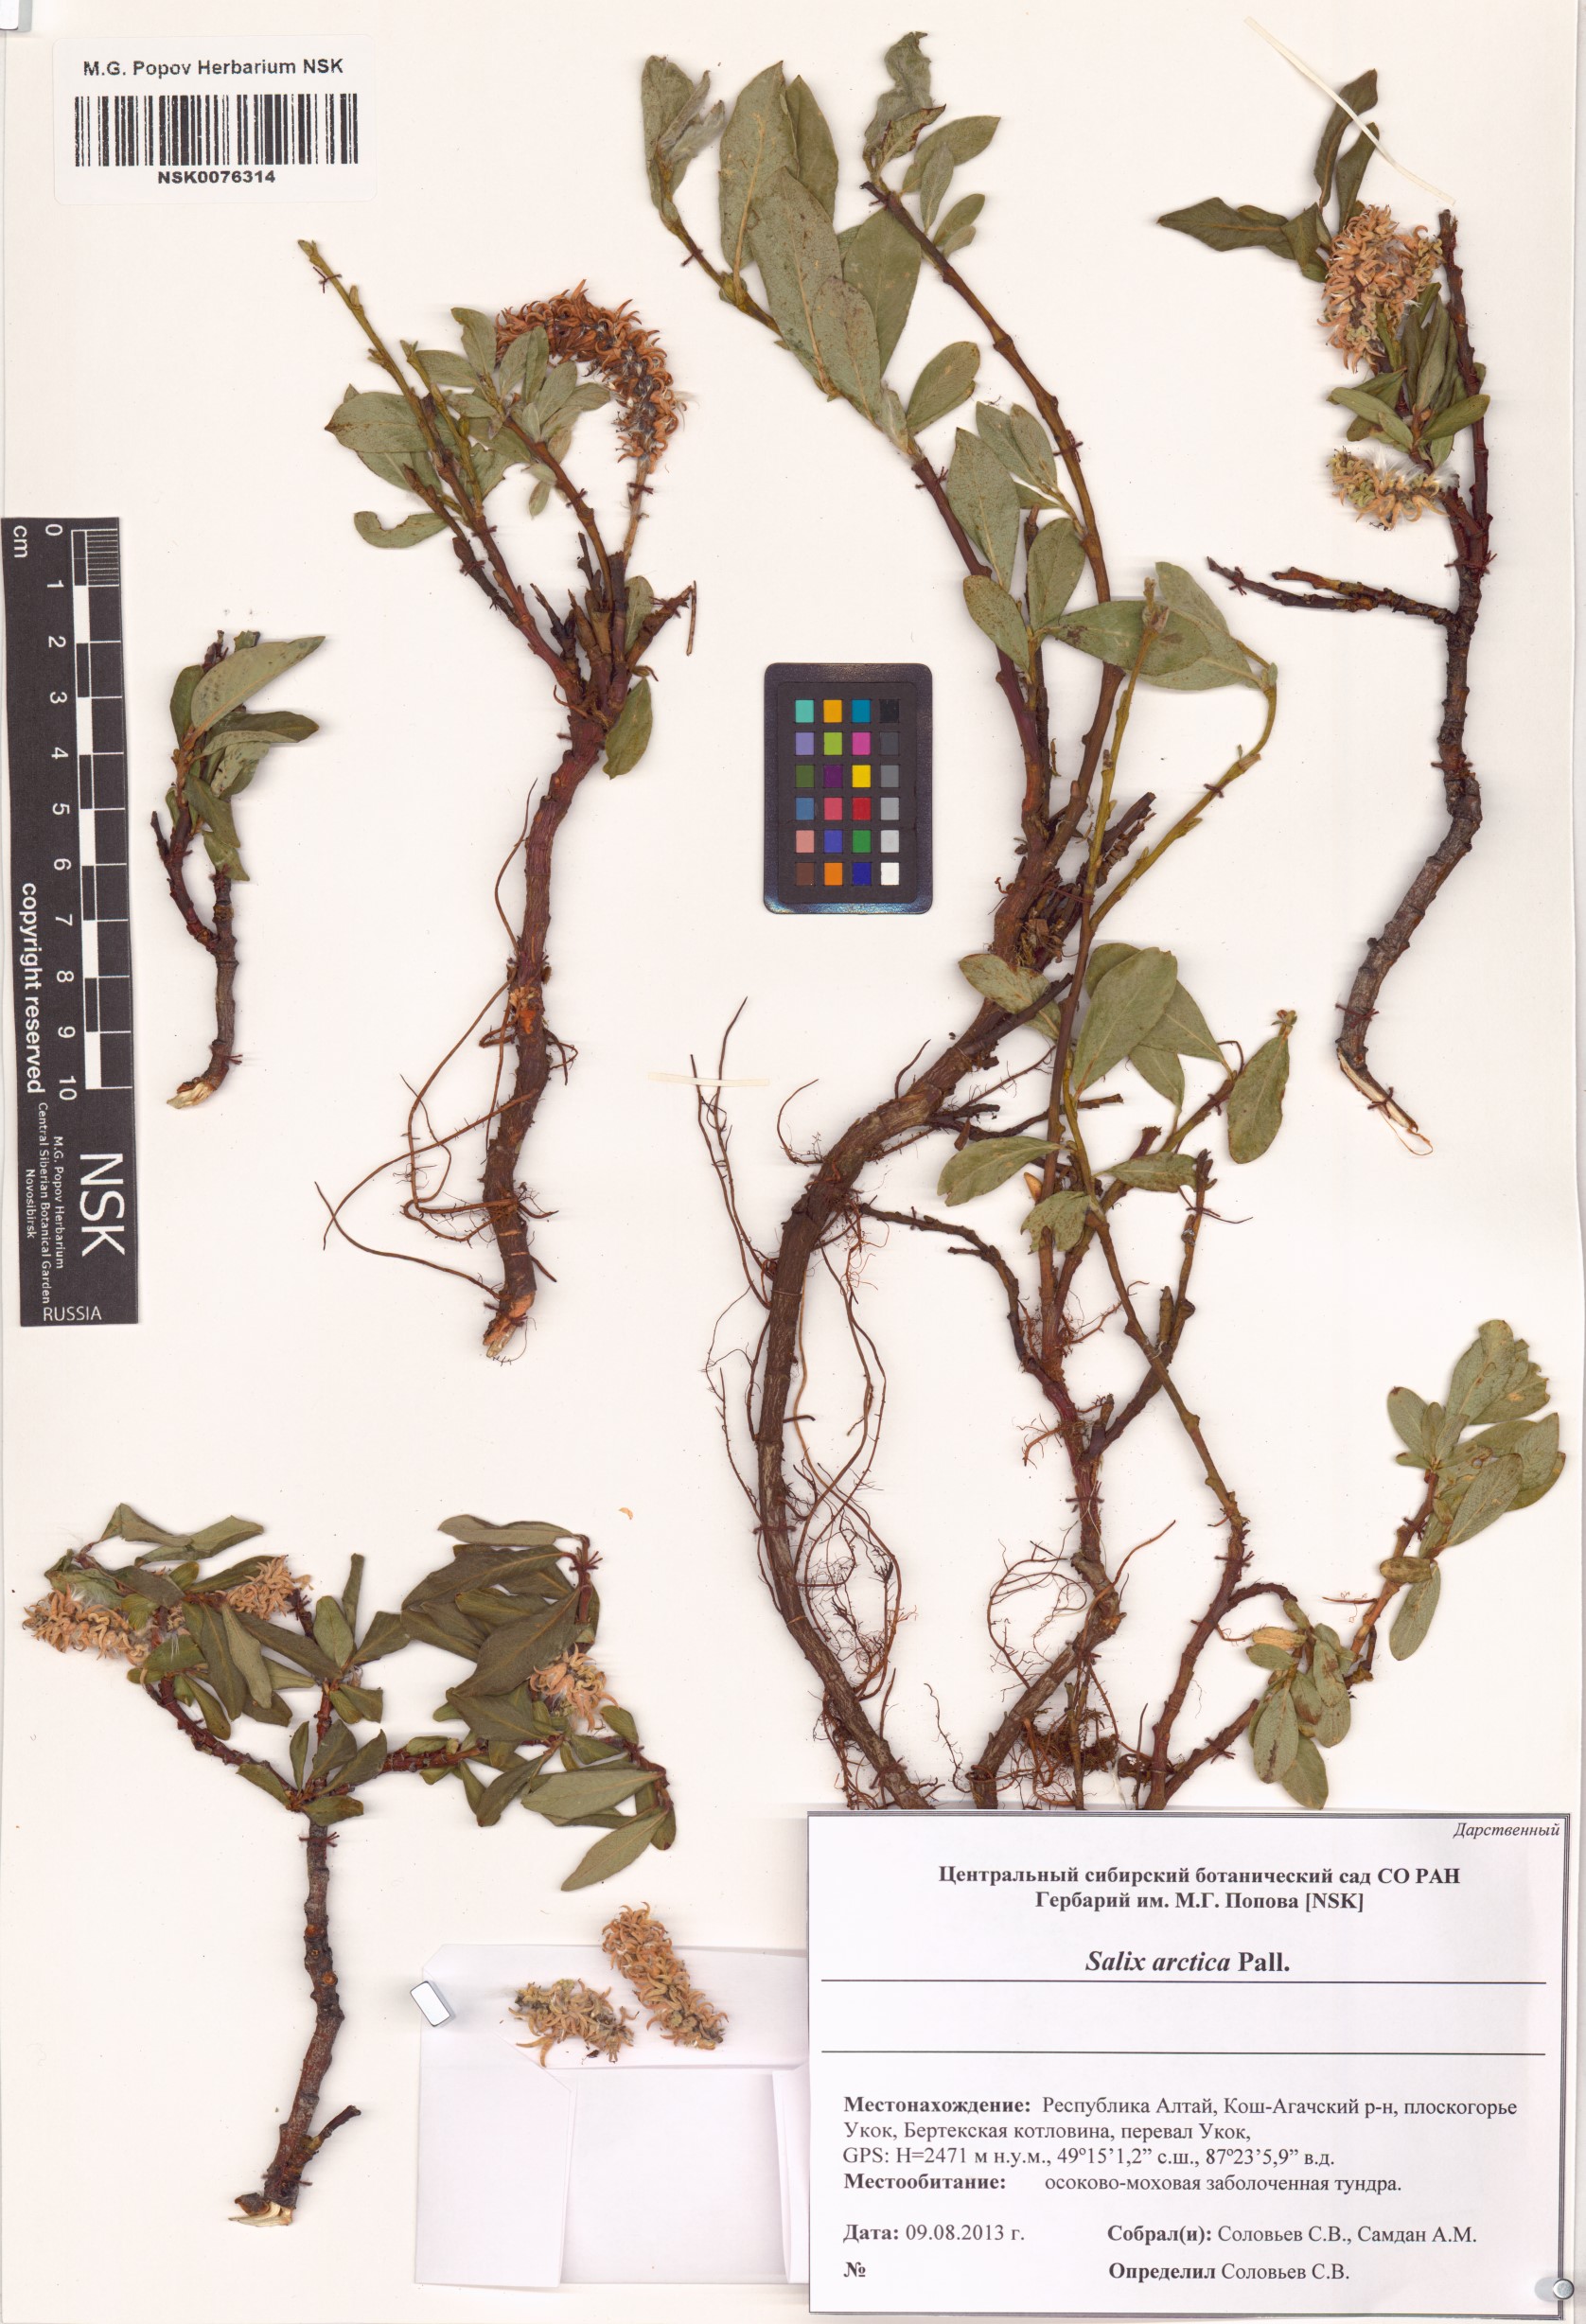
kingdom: Plantae
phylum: Tracheophyta
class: Magnoliopsida
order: Malpighiales
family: Salicaceae
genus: Salix
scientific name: Salix arctica
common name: Arctic willow
